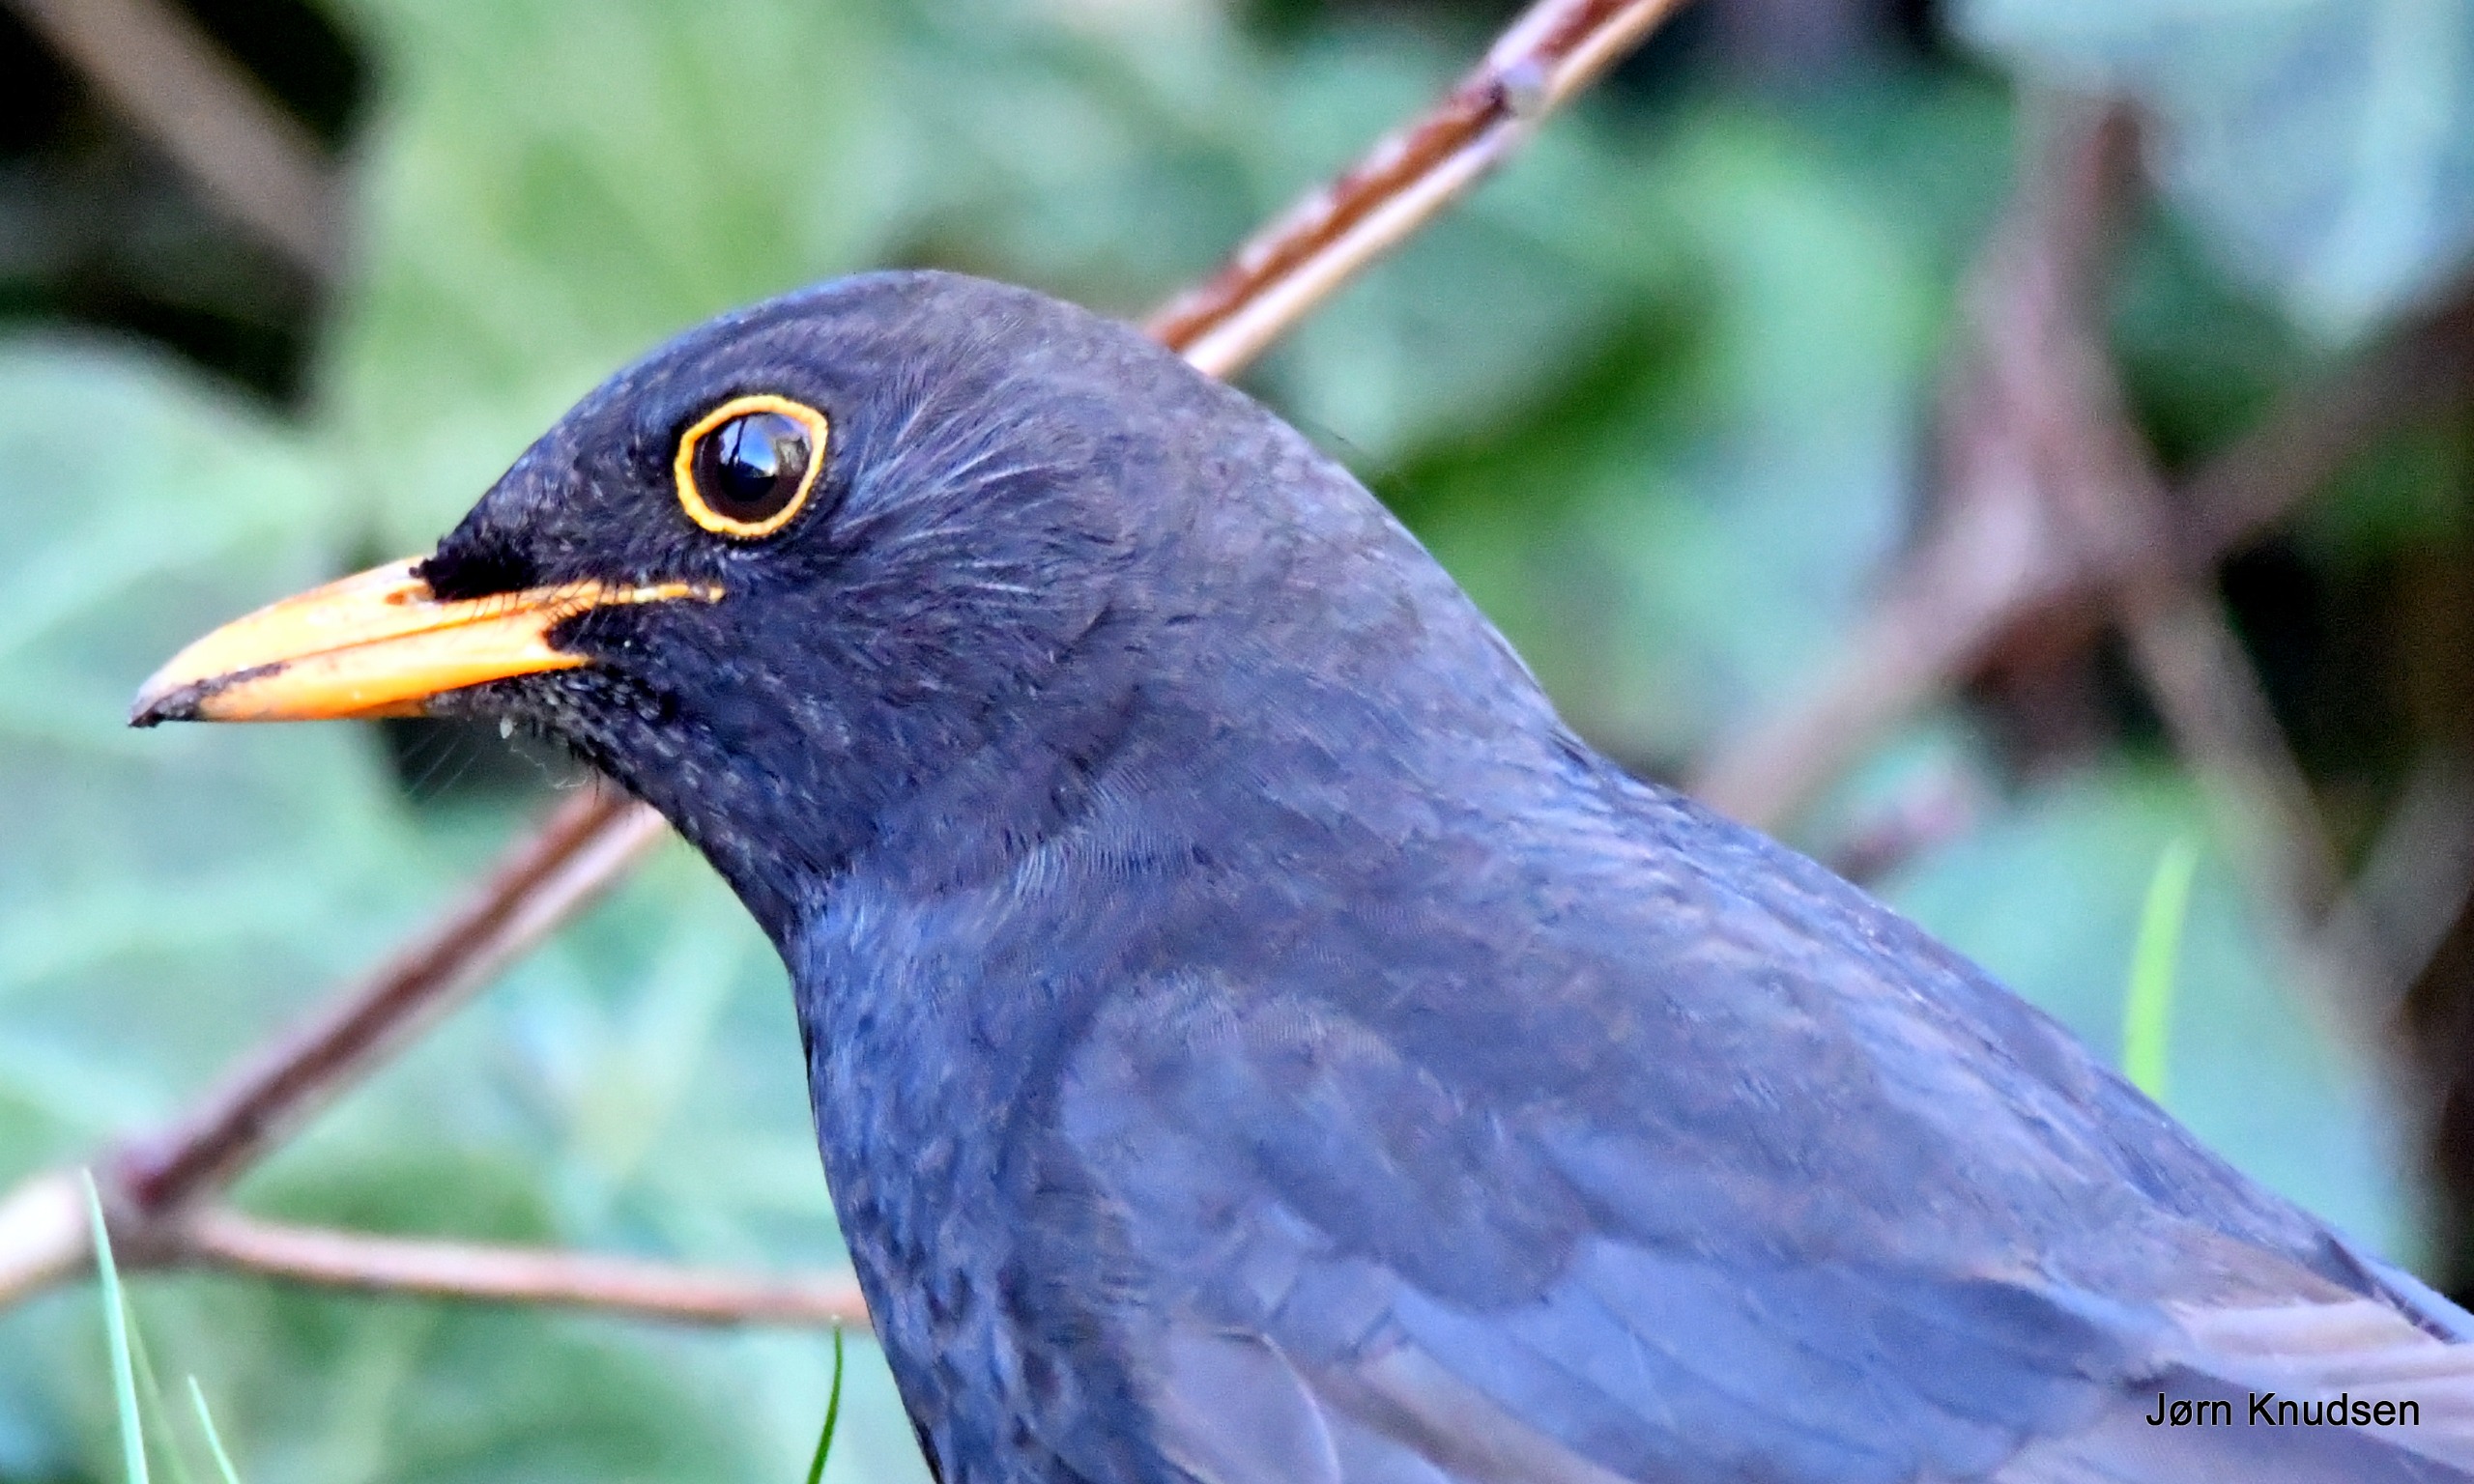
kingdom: Animalia
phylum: Chordata
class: Aves
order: Passeriformes
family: Turdidae
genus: Turdus
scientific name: Turdus merula
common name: Solsort
